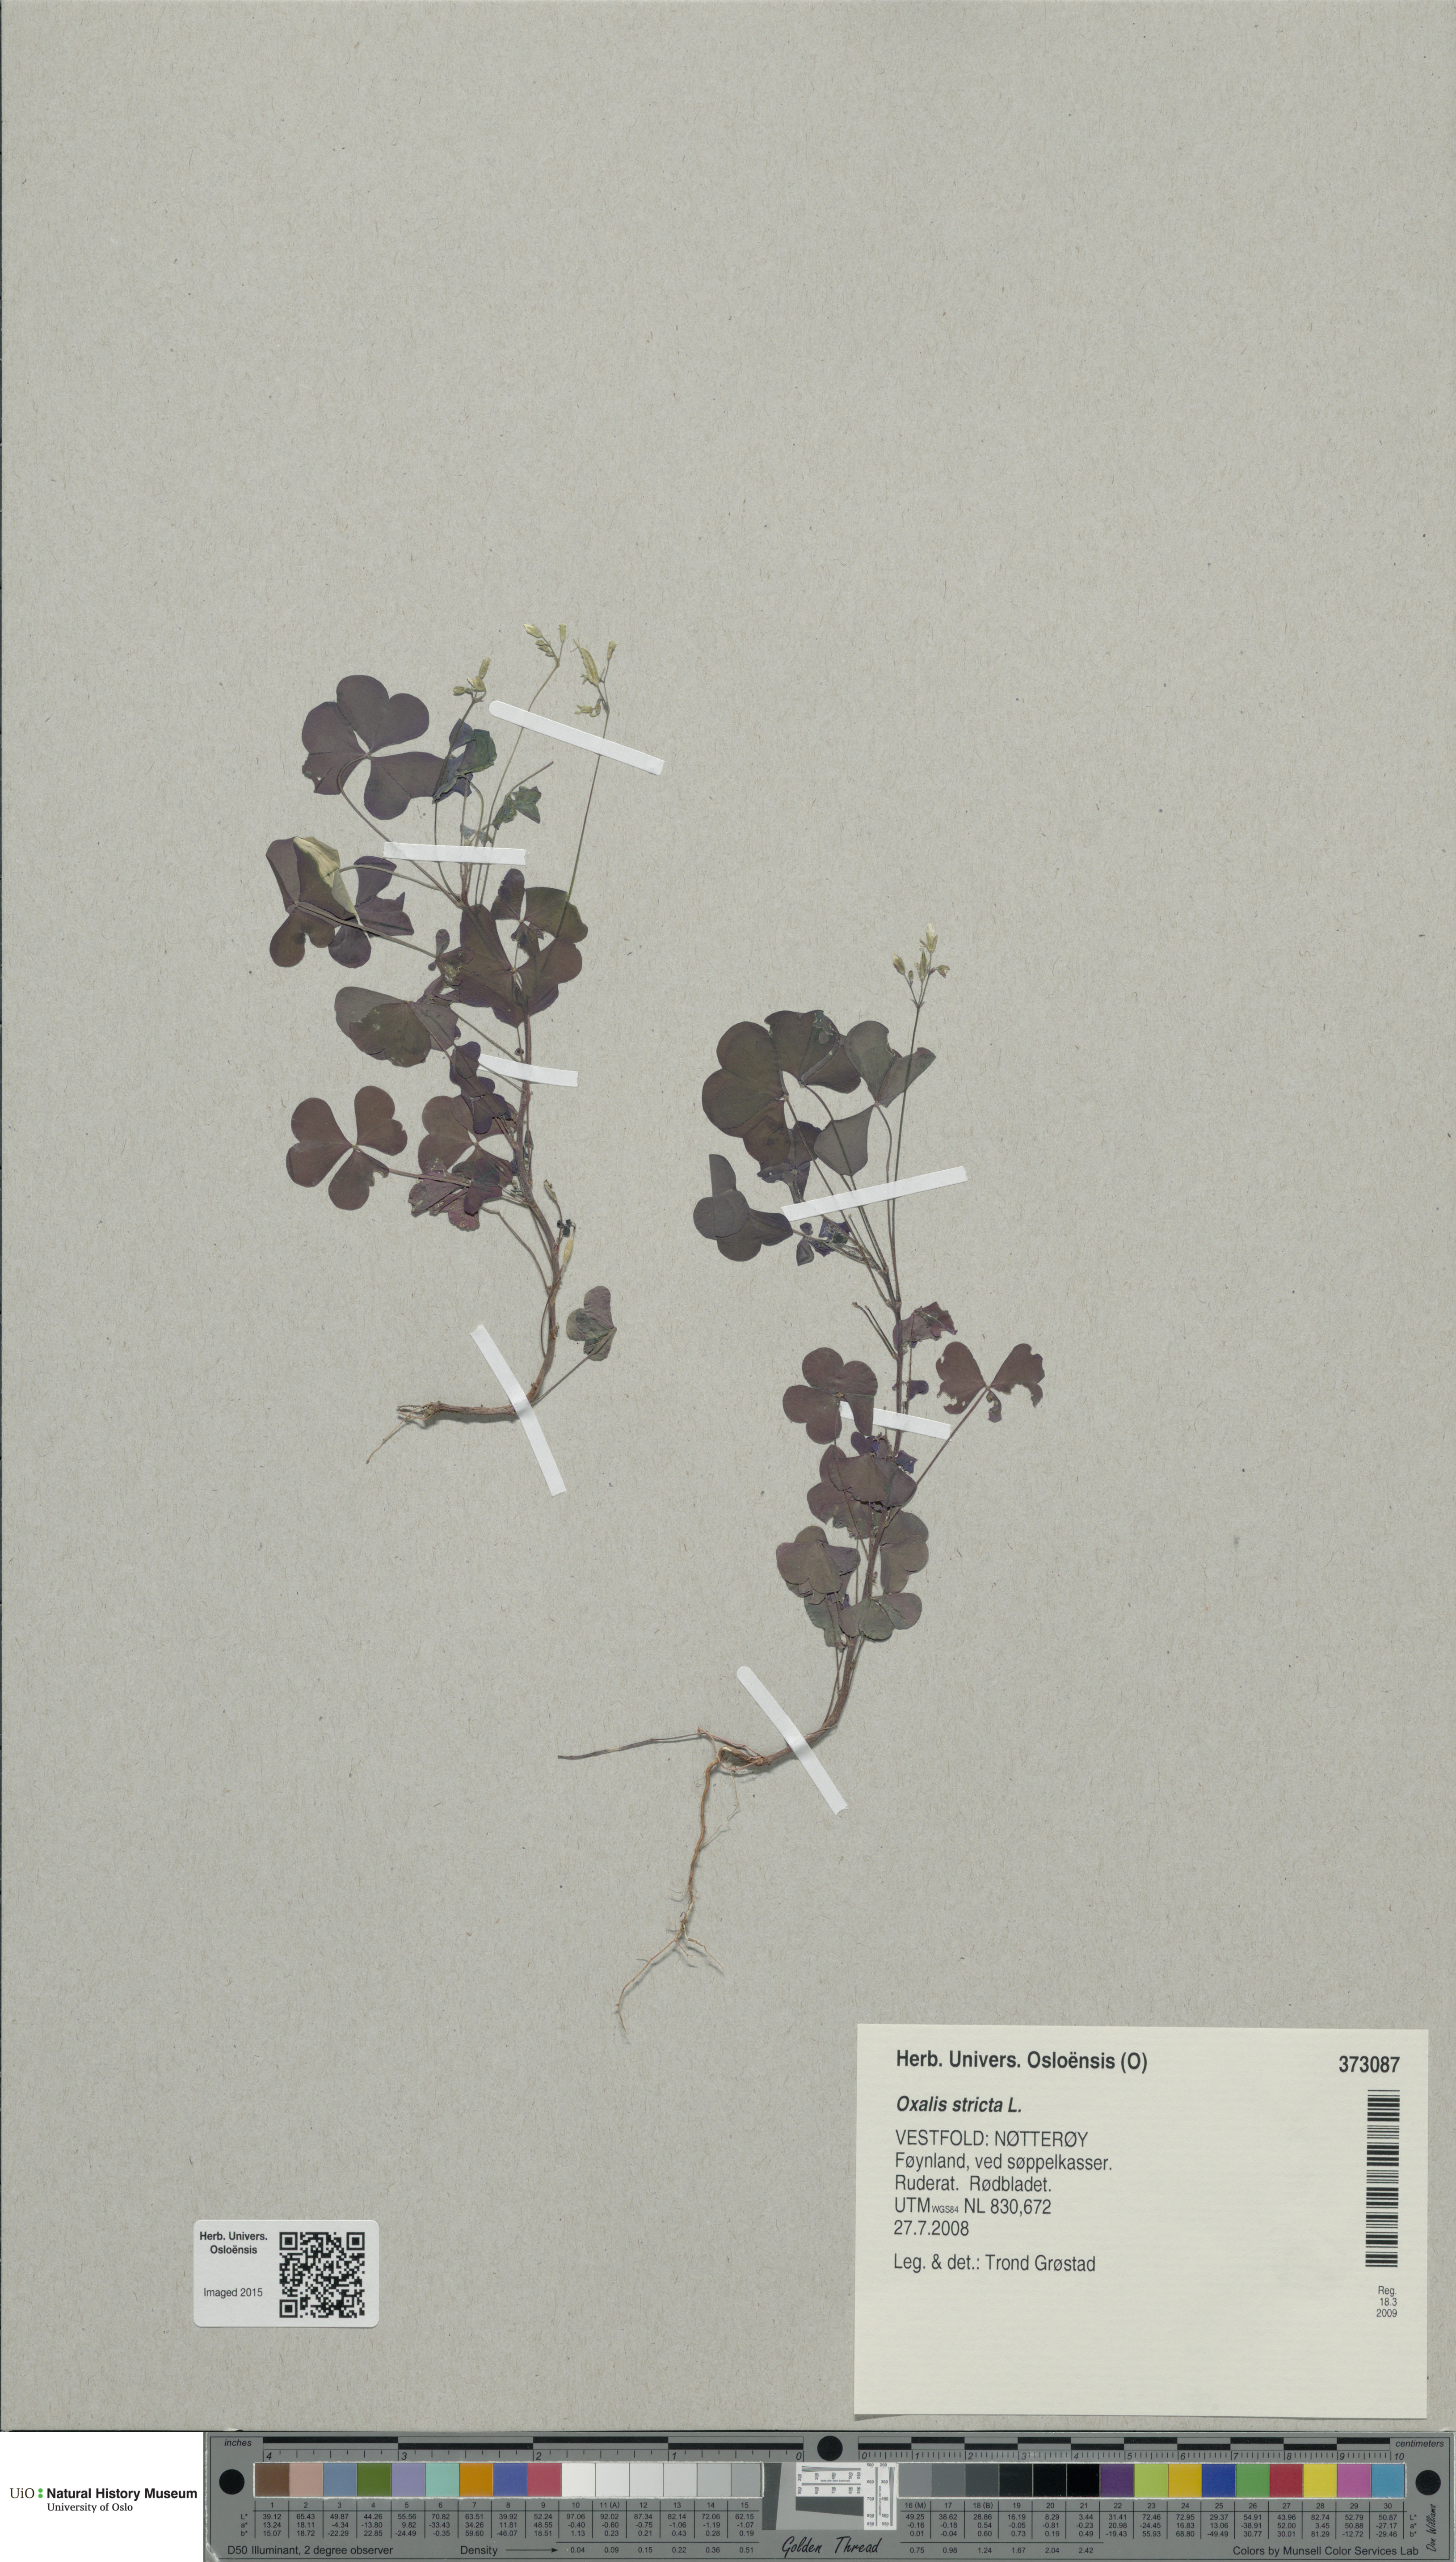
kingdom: Plantae
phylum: Tracheophyta
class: Magnoliopsida
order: Oxalidales
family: Oxalidaceae
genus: Oxalis
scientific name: Oxalis dillenii
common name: Sussex yellow-sorrel
